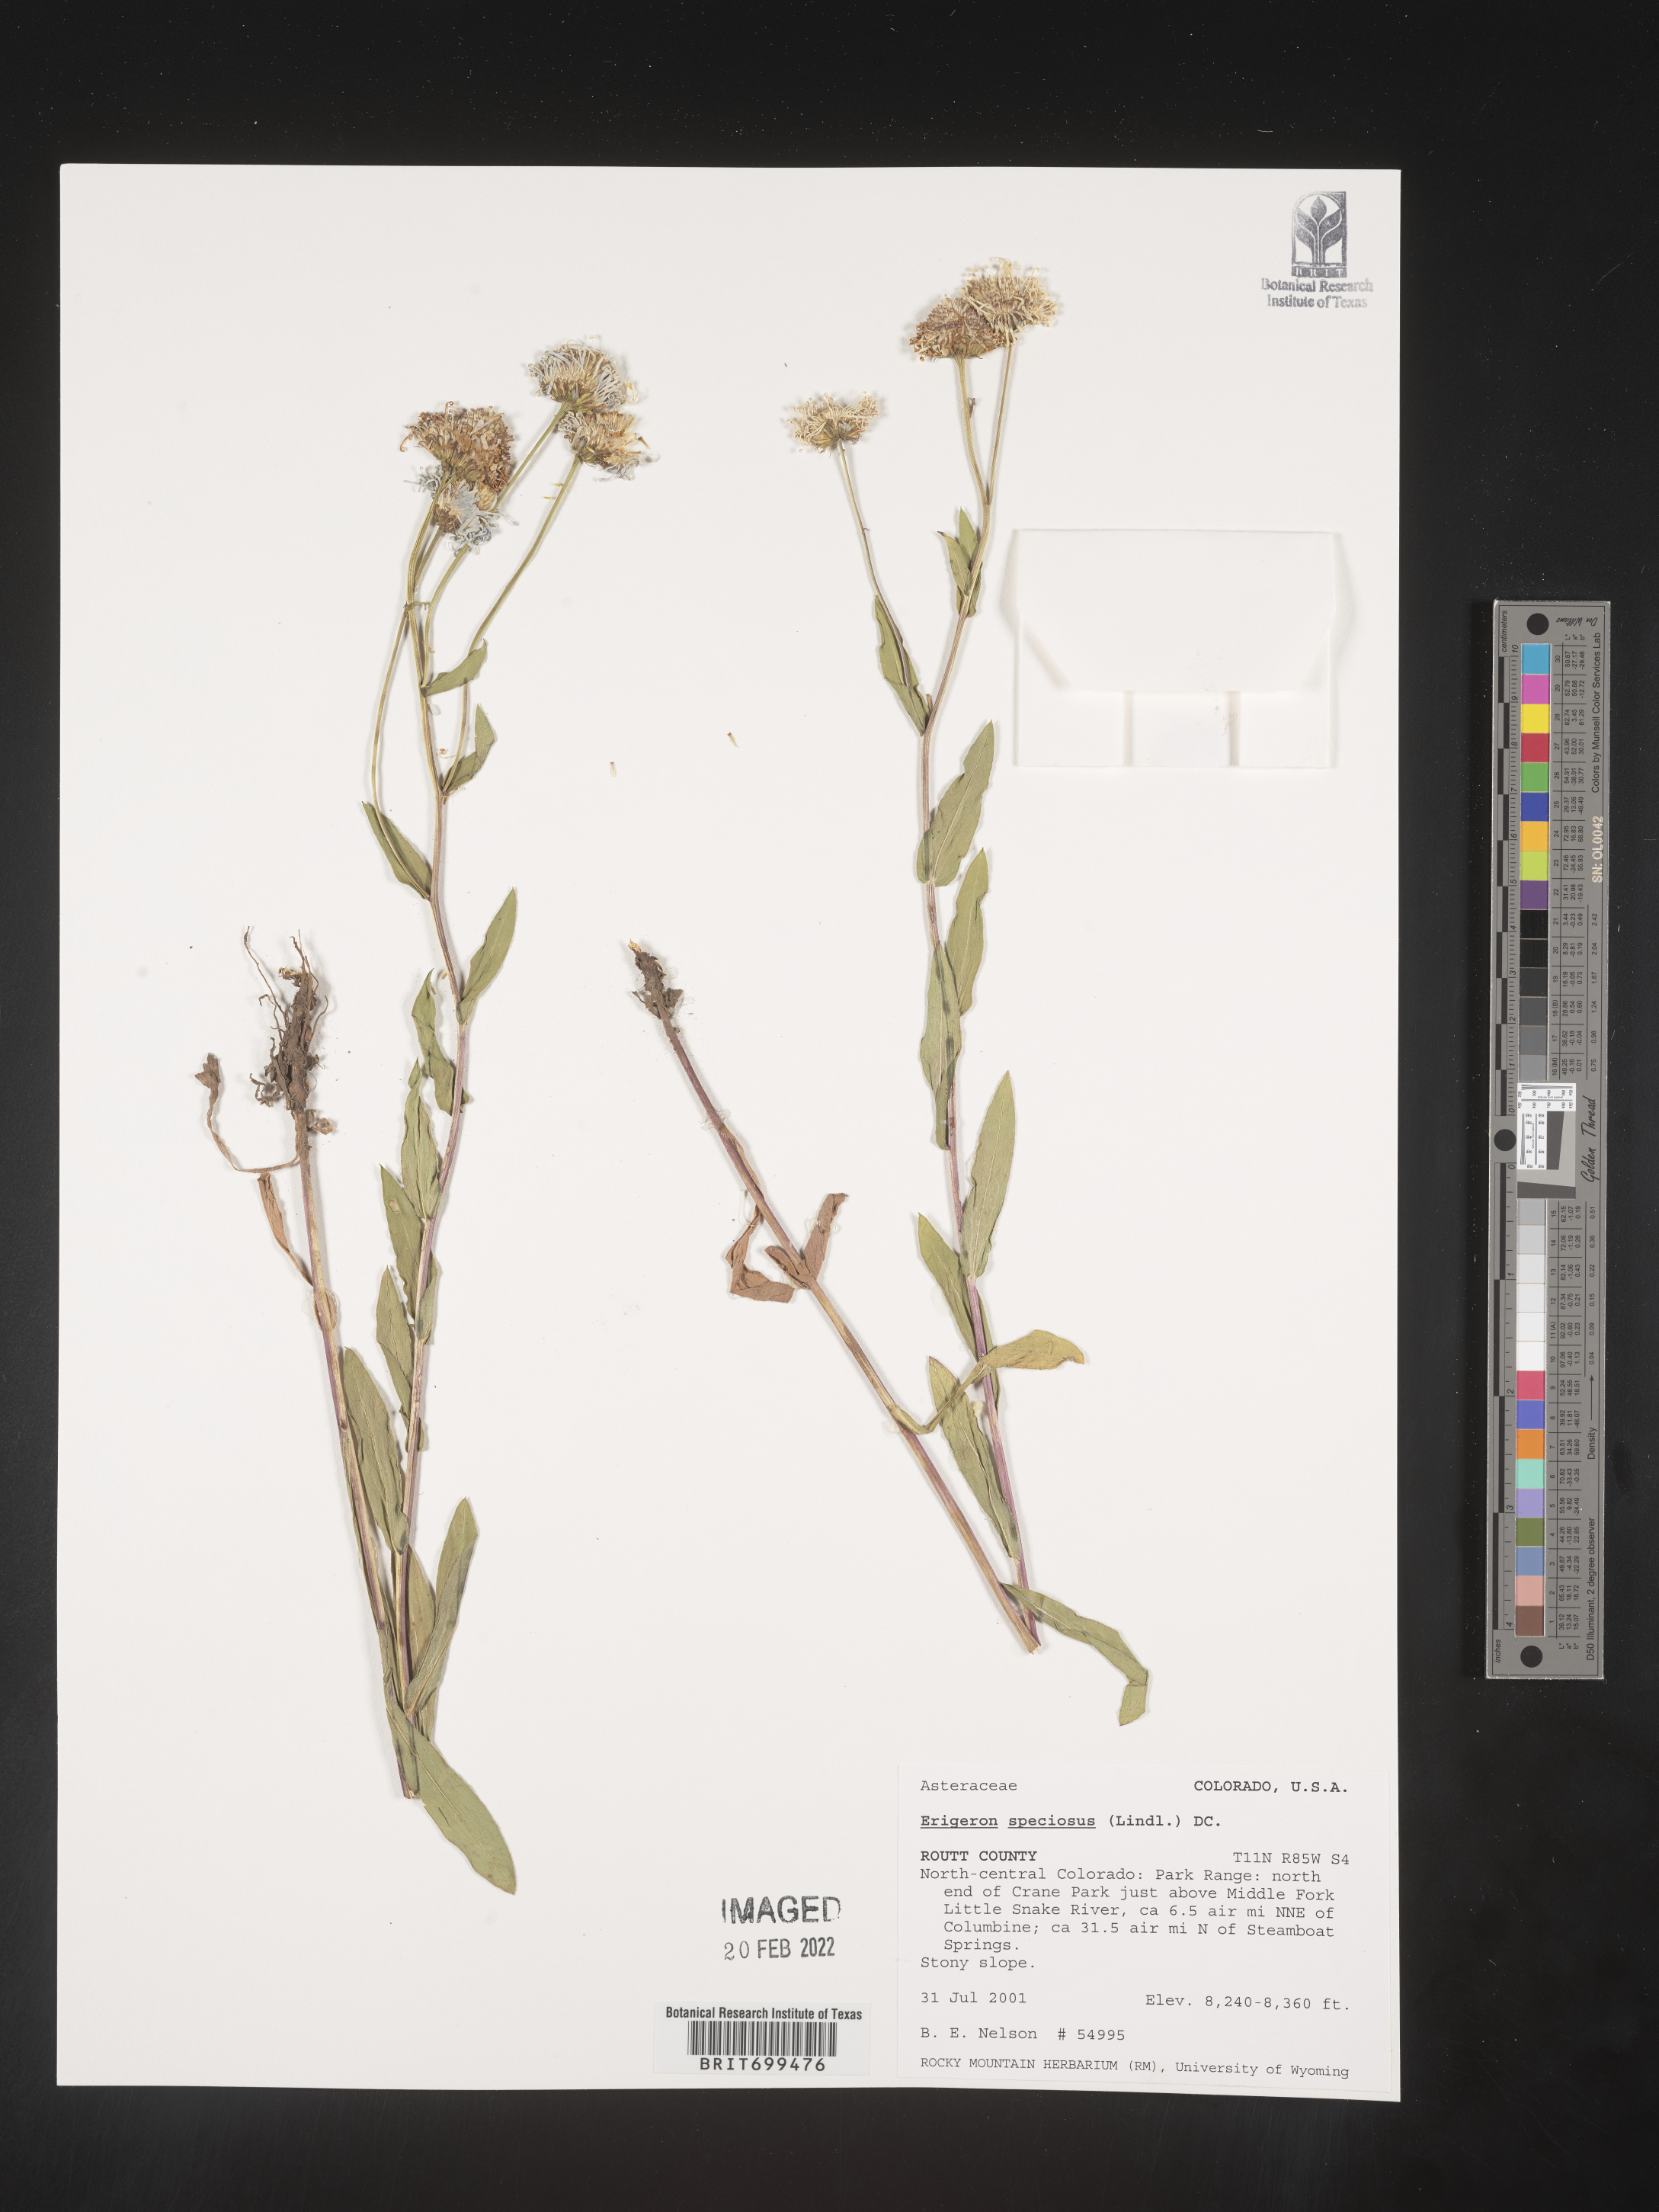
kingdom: Plantae
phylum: Tracheophyta
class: Magnoliopsida
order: Asterales
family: Asteraceae
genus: Erigeron
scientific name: Erigeron speciosus
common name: Aspen fleabane
